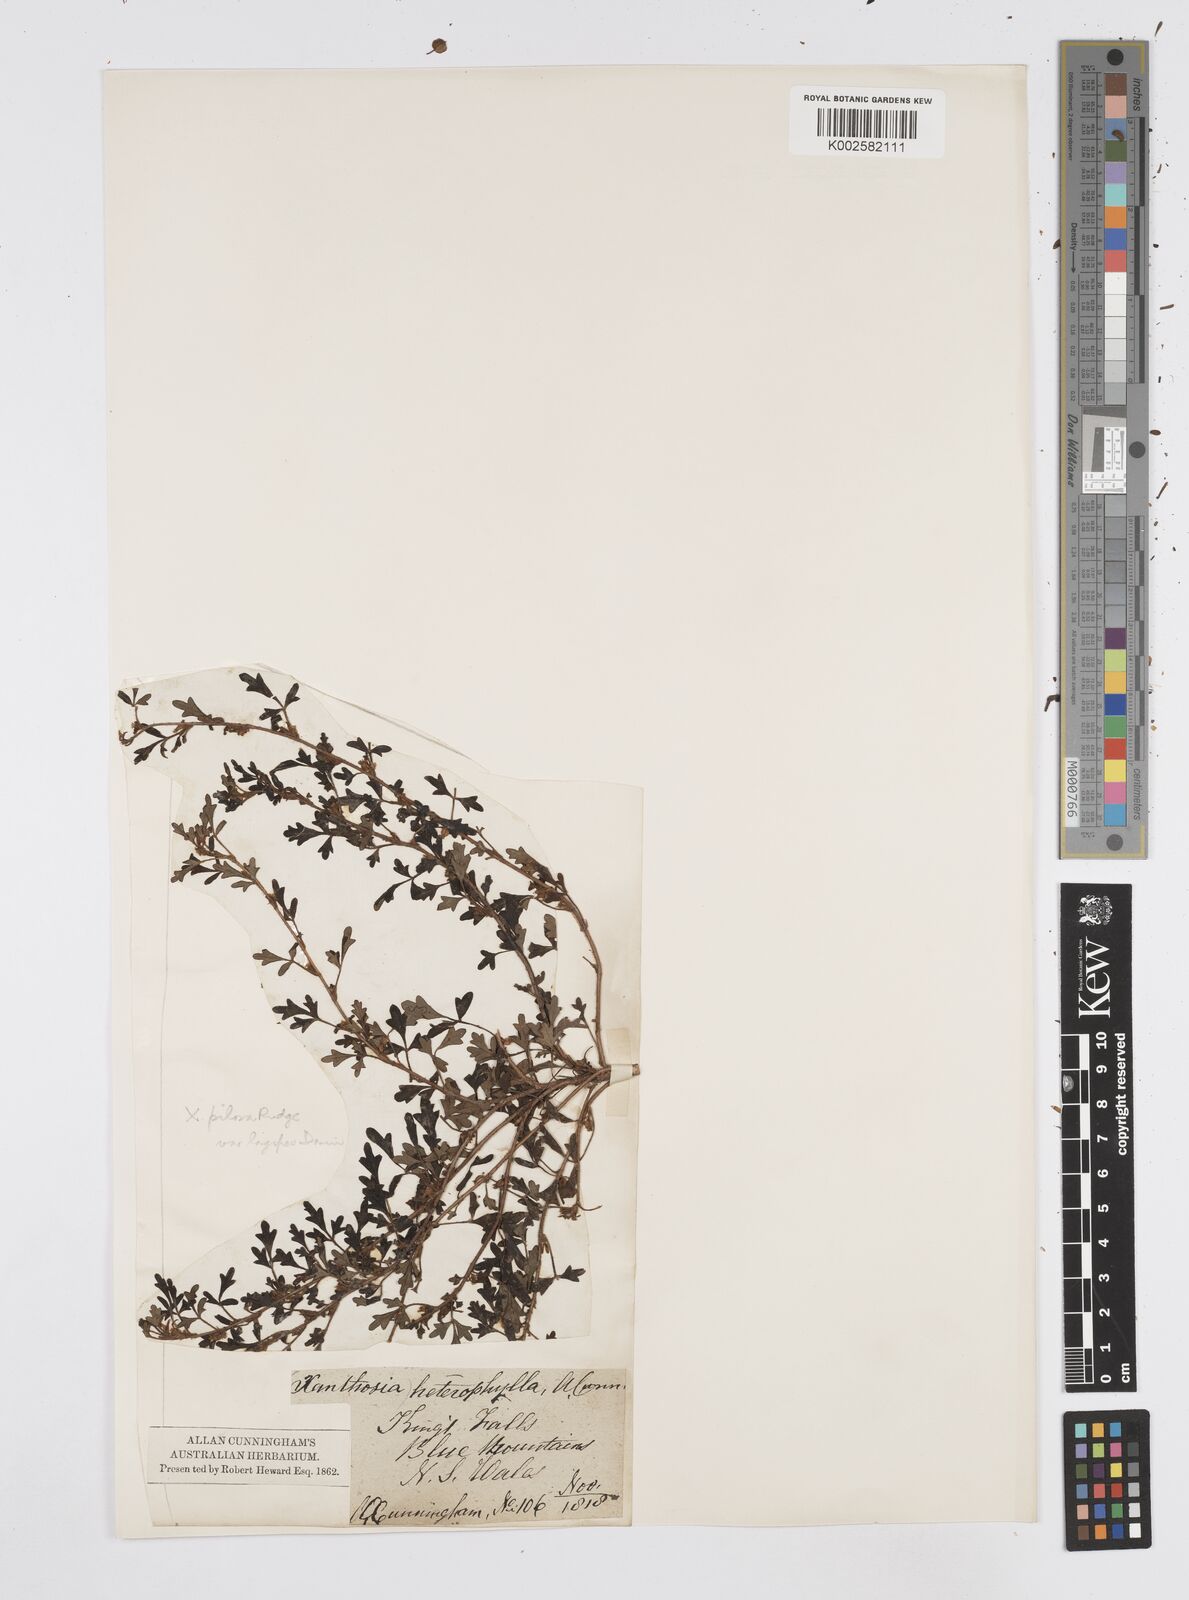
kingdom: Plantae
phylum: Tracheophyta
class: Magnoliopsida
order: Apiales
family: Apiaceae
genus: Xanthosia
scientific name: Xanthosia pilosa
